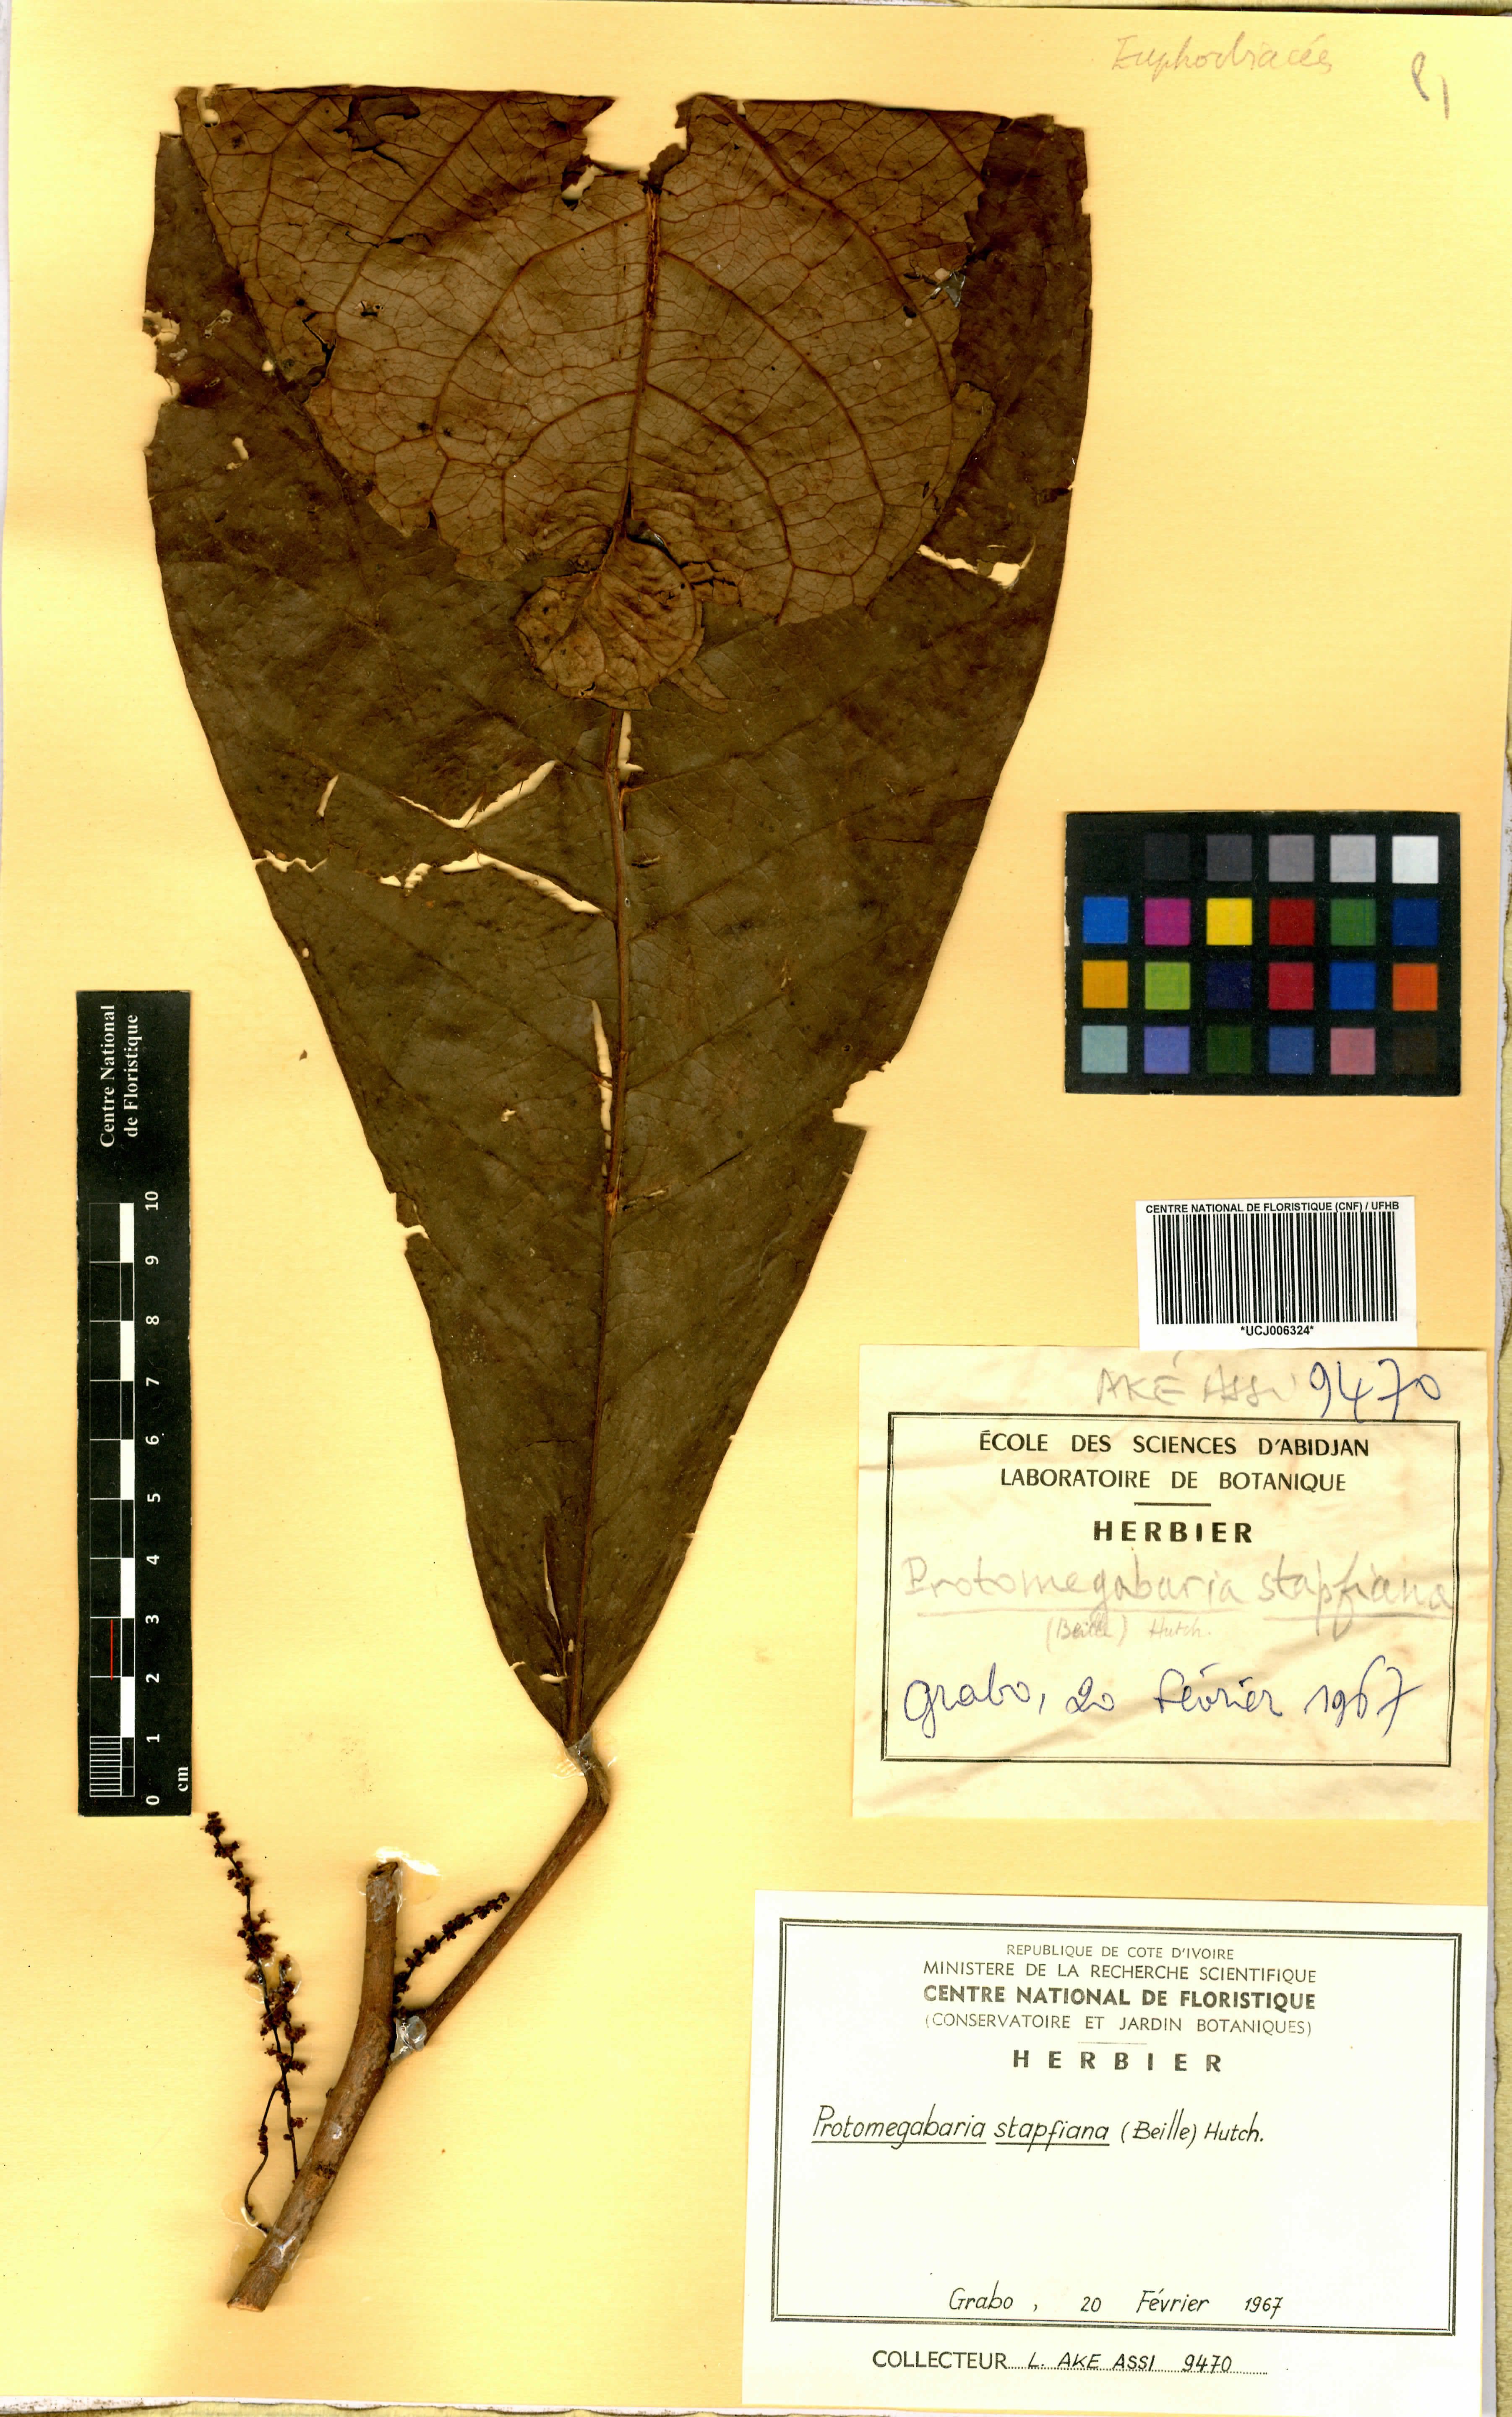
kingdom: Plantae
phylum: Tracheophyta
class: Magnoliopsida
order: Malpighiales
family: Phyllanthaceae
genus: Protomegabaria
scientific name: Protomegabaria stapfiana
